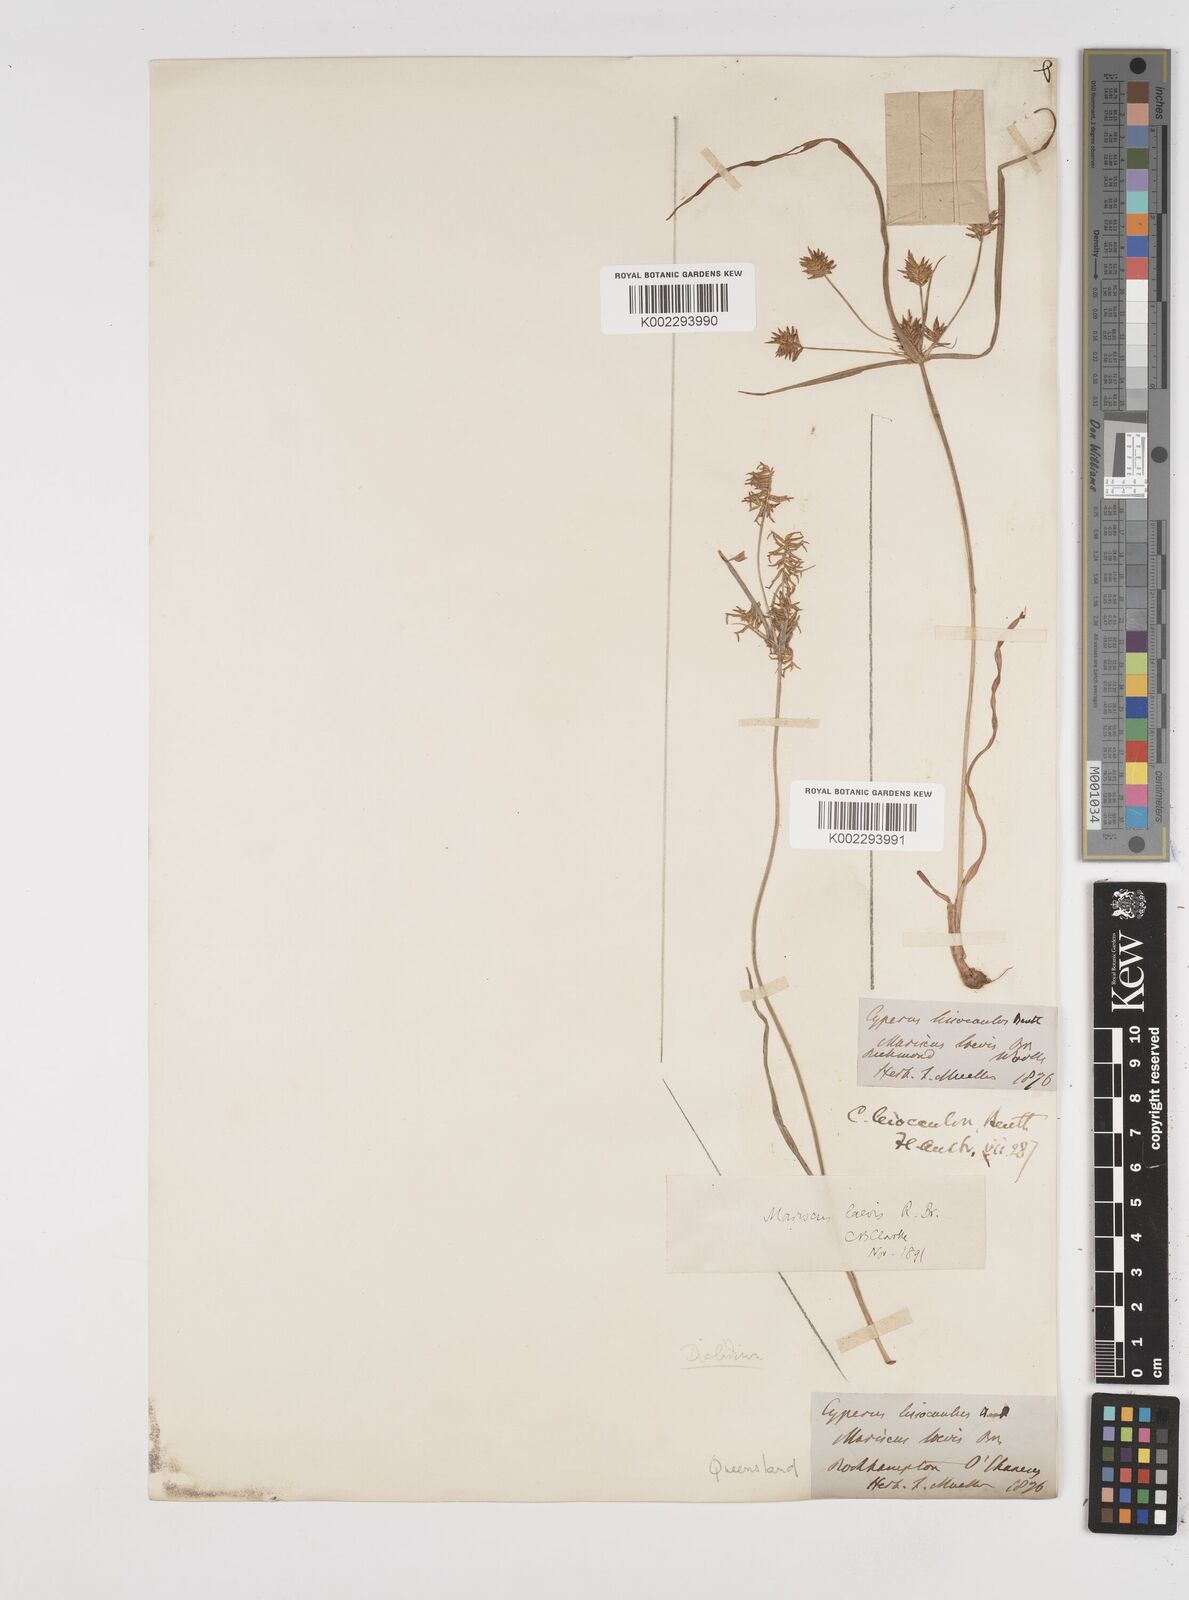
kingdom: Plantae
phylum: Tracheophyta
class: Liliopsida
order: Poales
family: Cyperaceae
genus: Cyperus
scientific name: Cyperus leiocaulon
